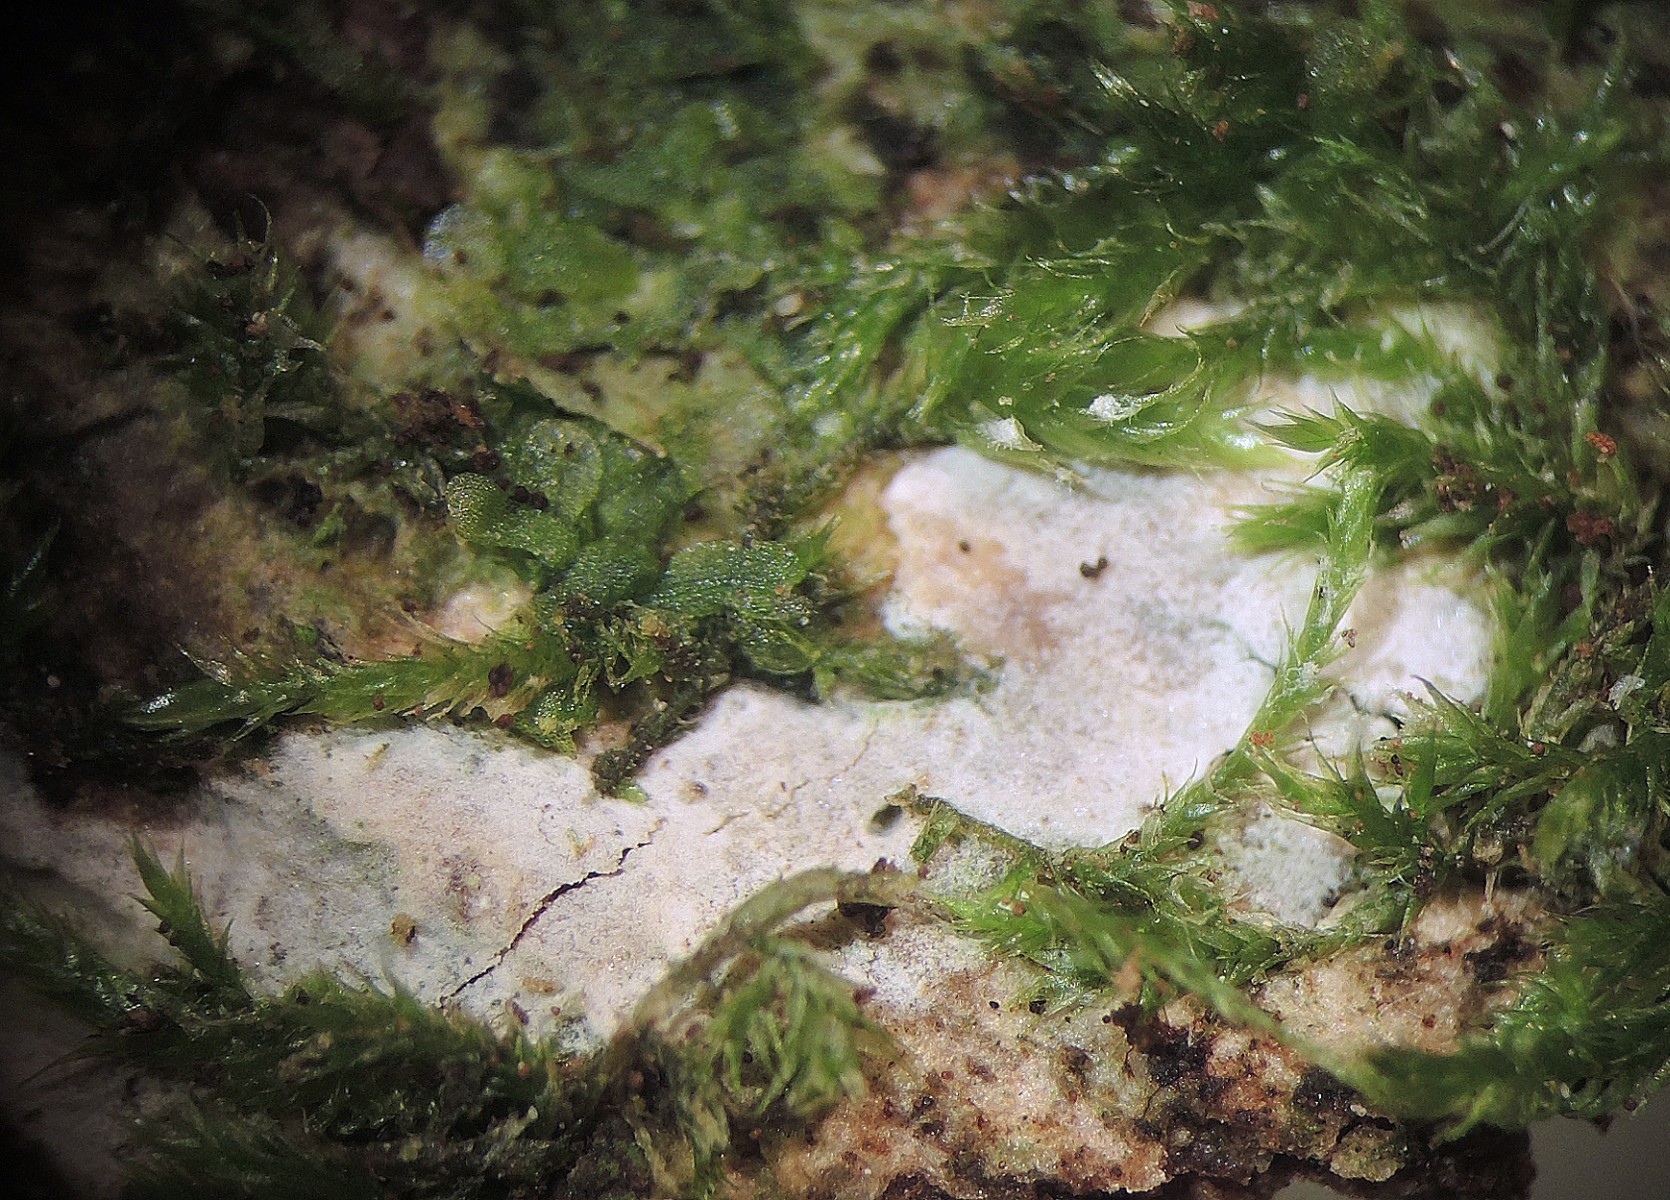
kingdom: Fungi
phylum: Basidiomycota
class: Agaricomycetes
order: Agaricales
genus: Dendrothele
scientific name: Dendrothele citrisporella
